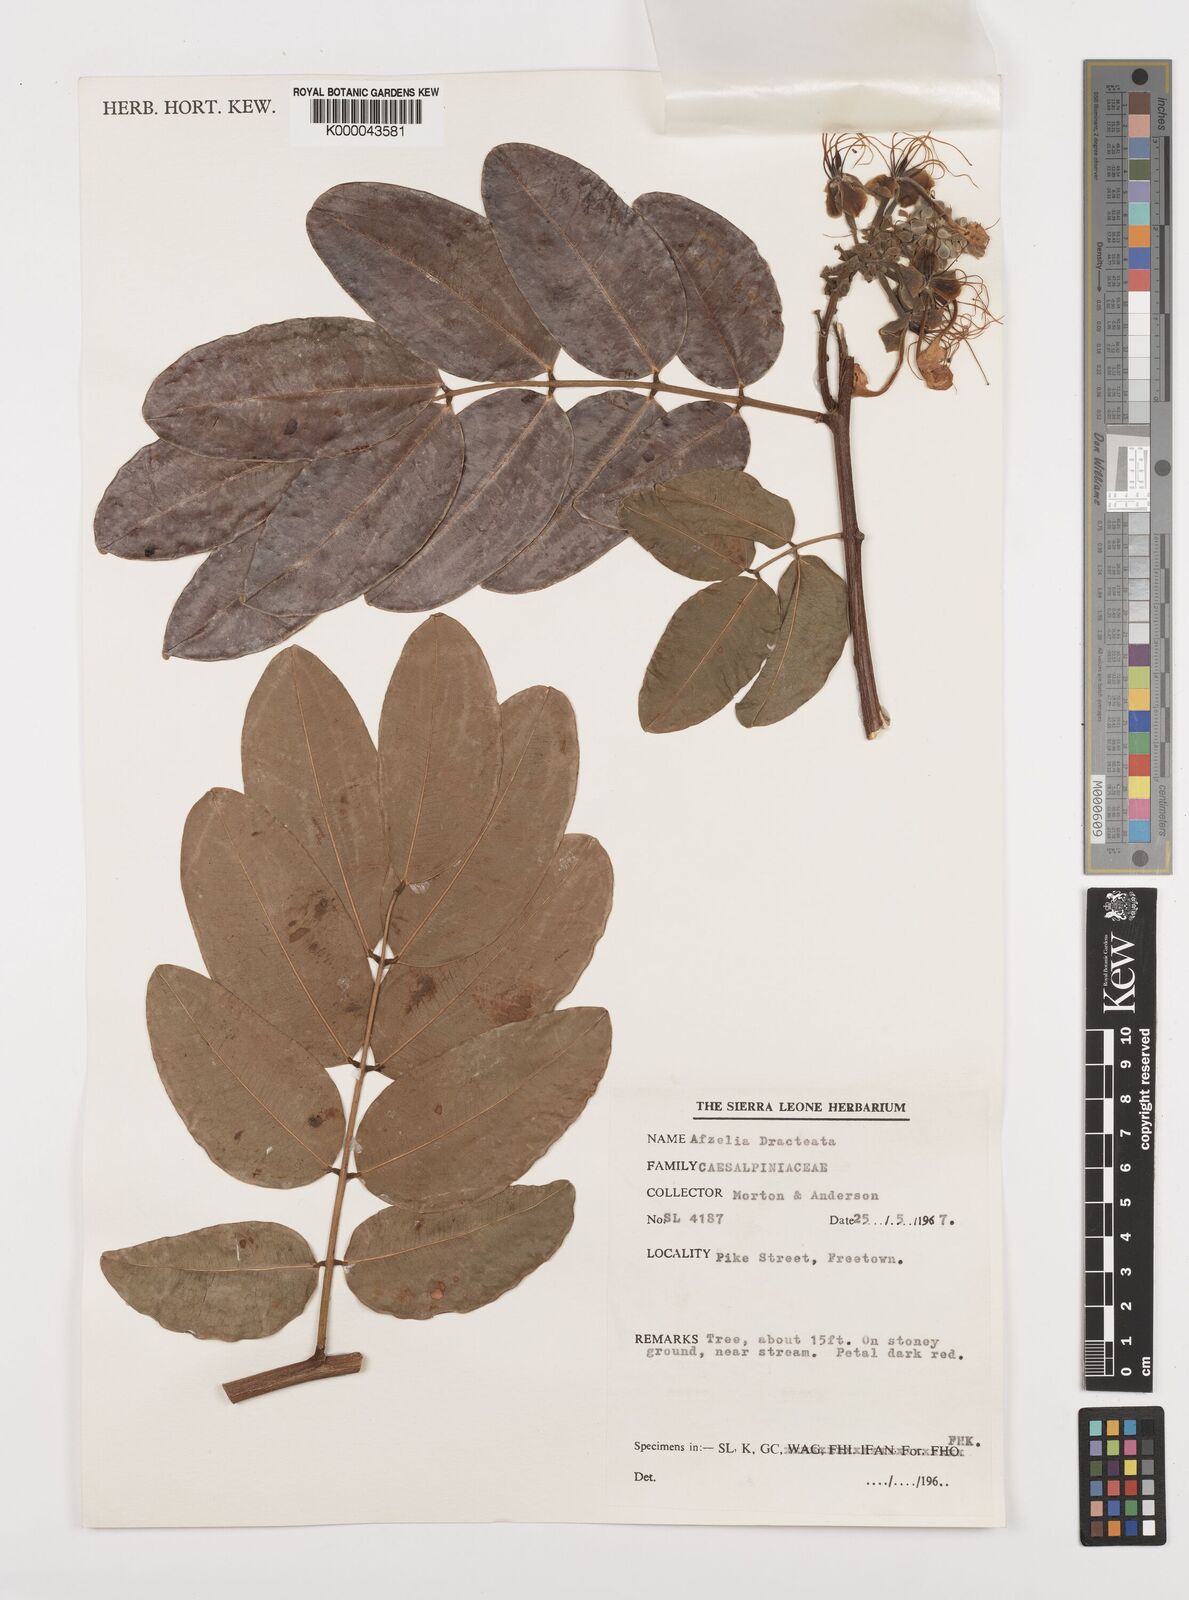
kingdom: Plantae
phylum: Tracheophyta
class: Magnoliopsida
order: Fabales
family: Fabaceae
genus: Afzelia
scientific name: Afzelia
